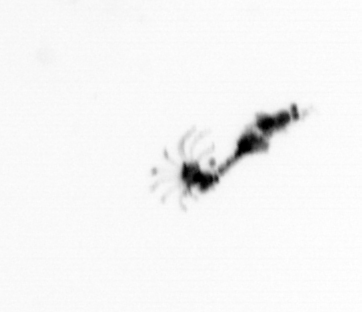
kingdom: Animalia
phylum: Cnidaria
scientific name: Cnidaria
